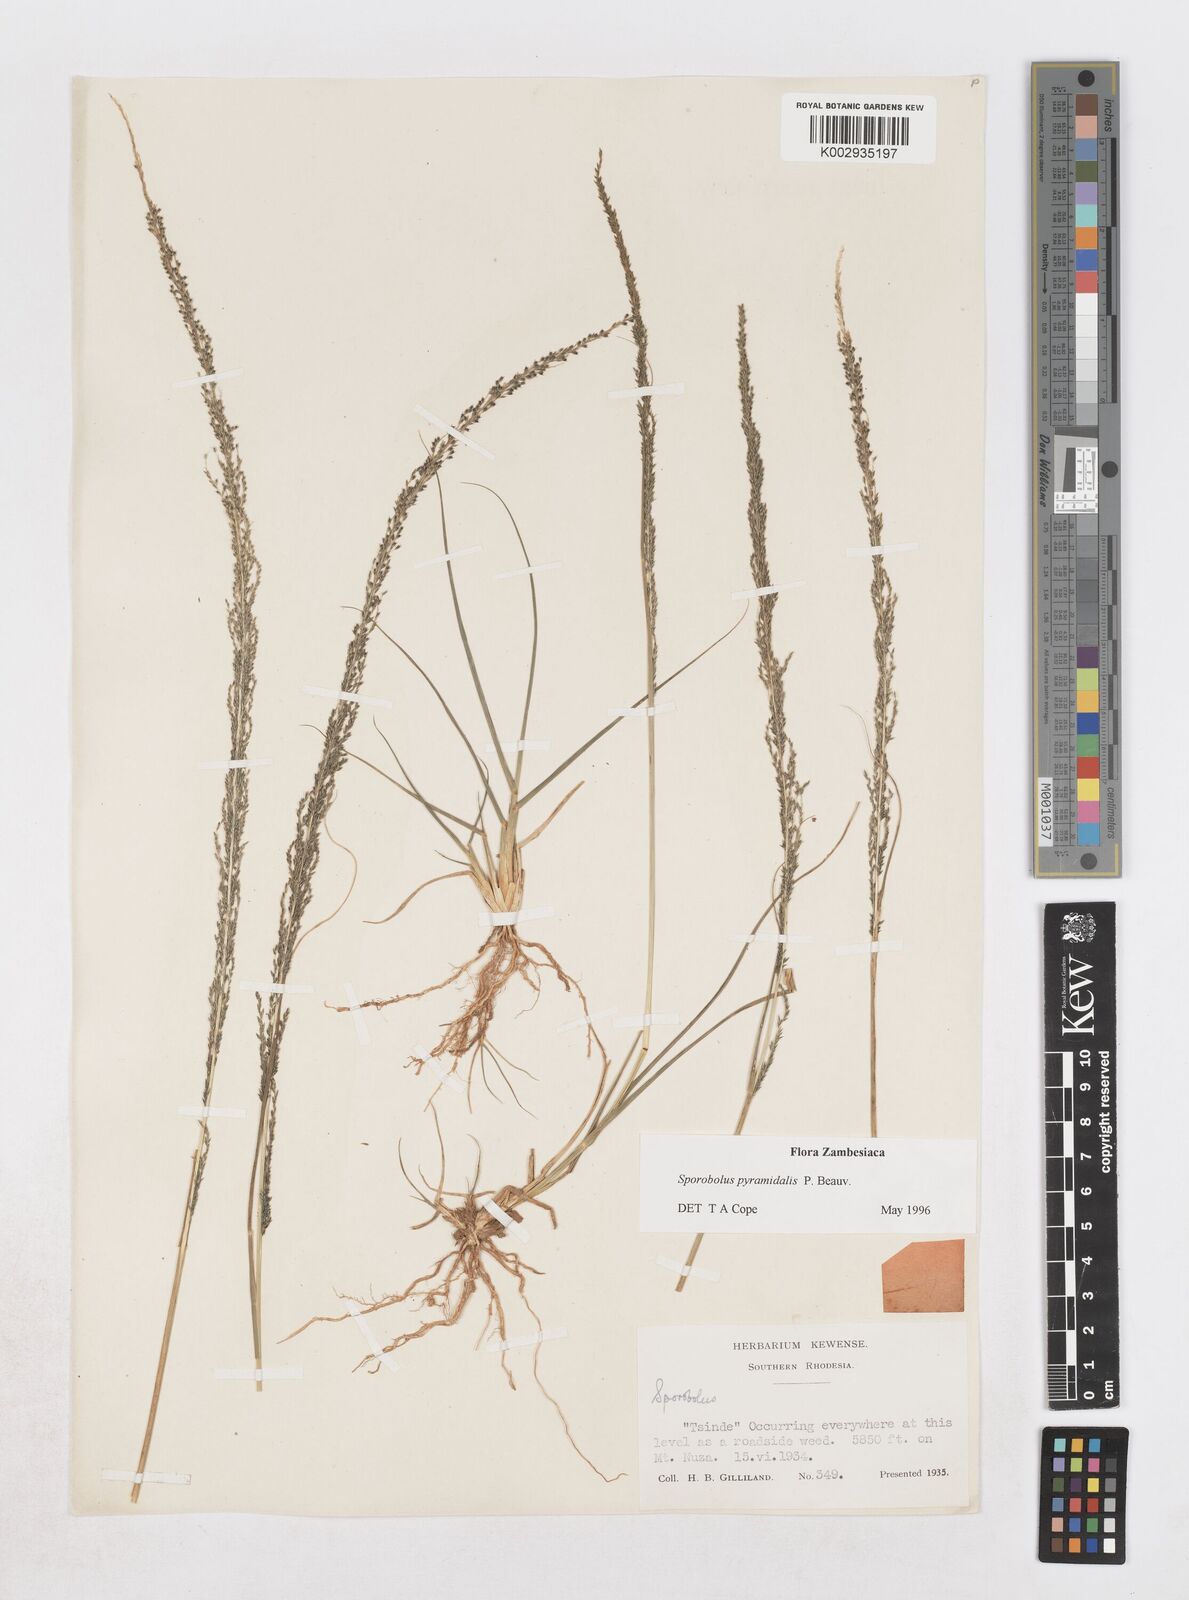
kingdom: Plantae
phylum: Tracheophyta
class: Liliopsida
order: Poales
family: Poaceae
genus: Sporobolus
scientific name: Sporobolus pyramidalis
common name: West indian dropseed
